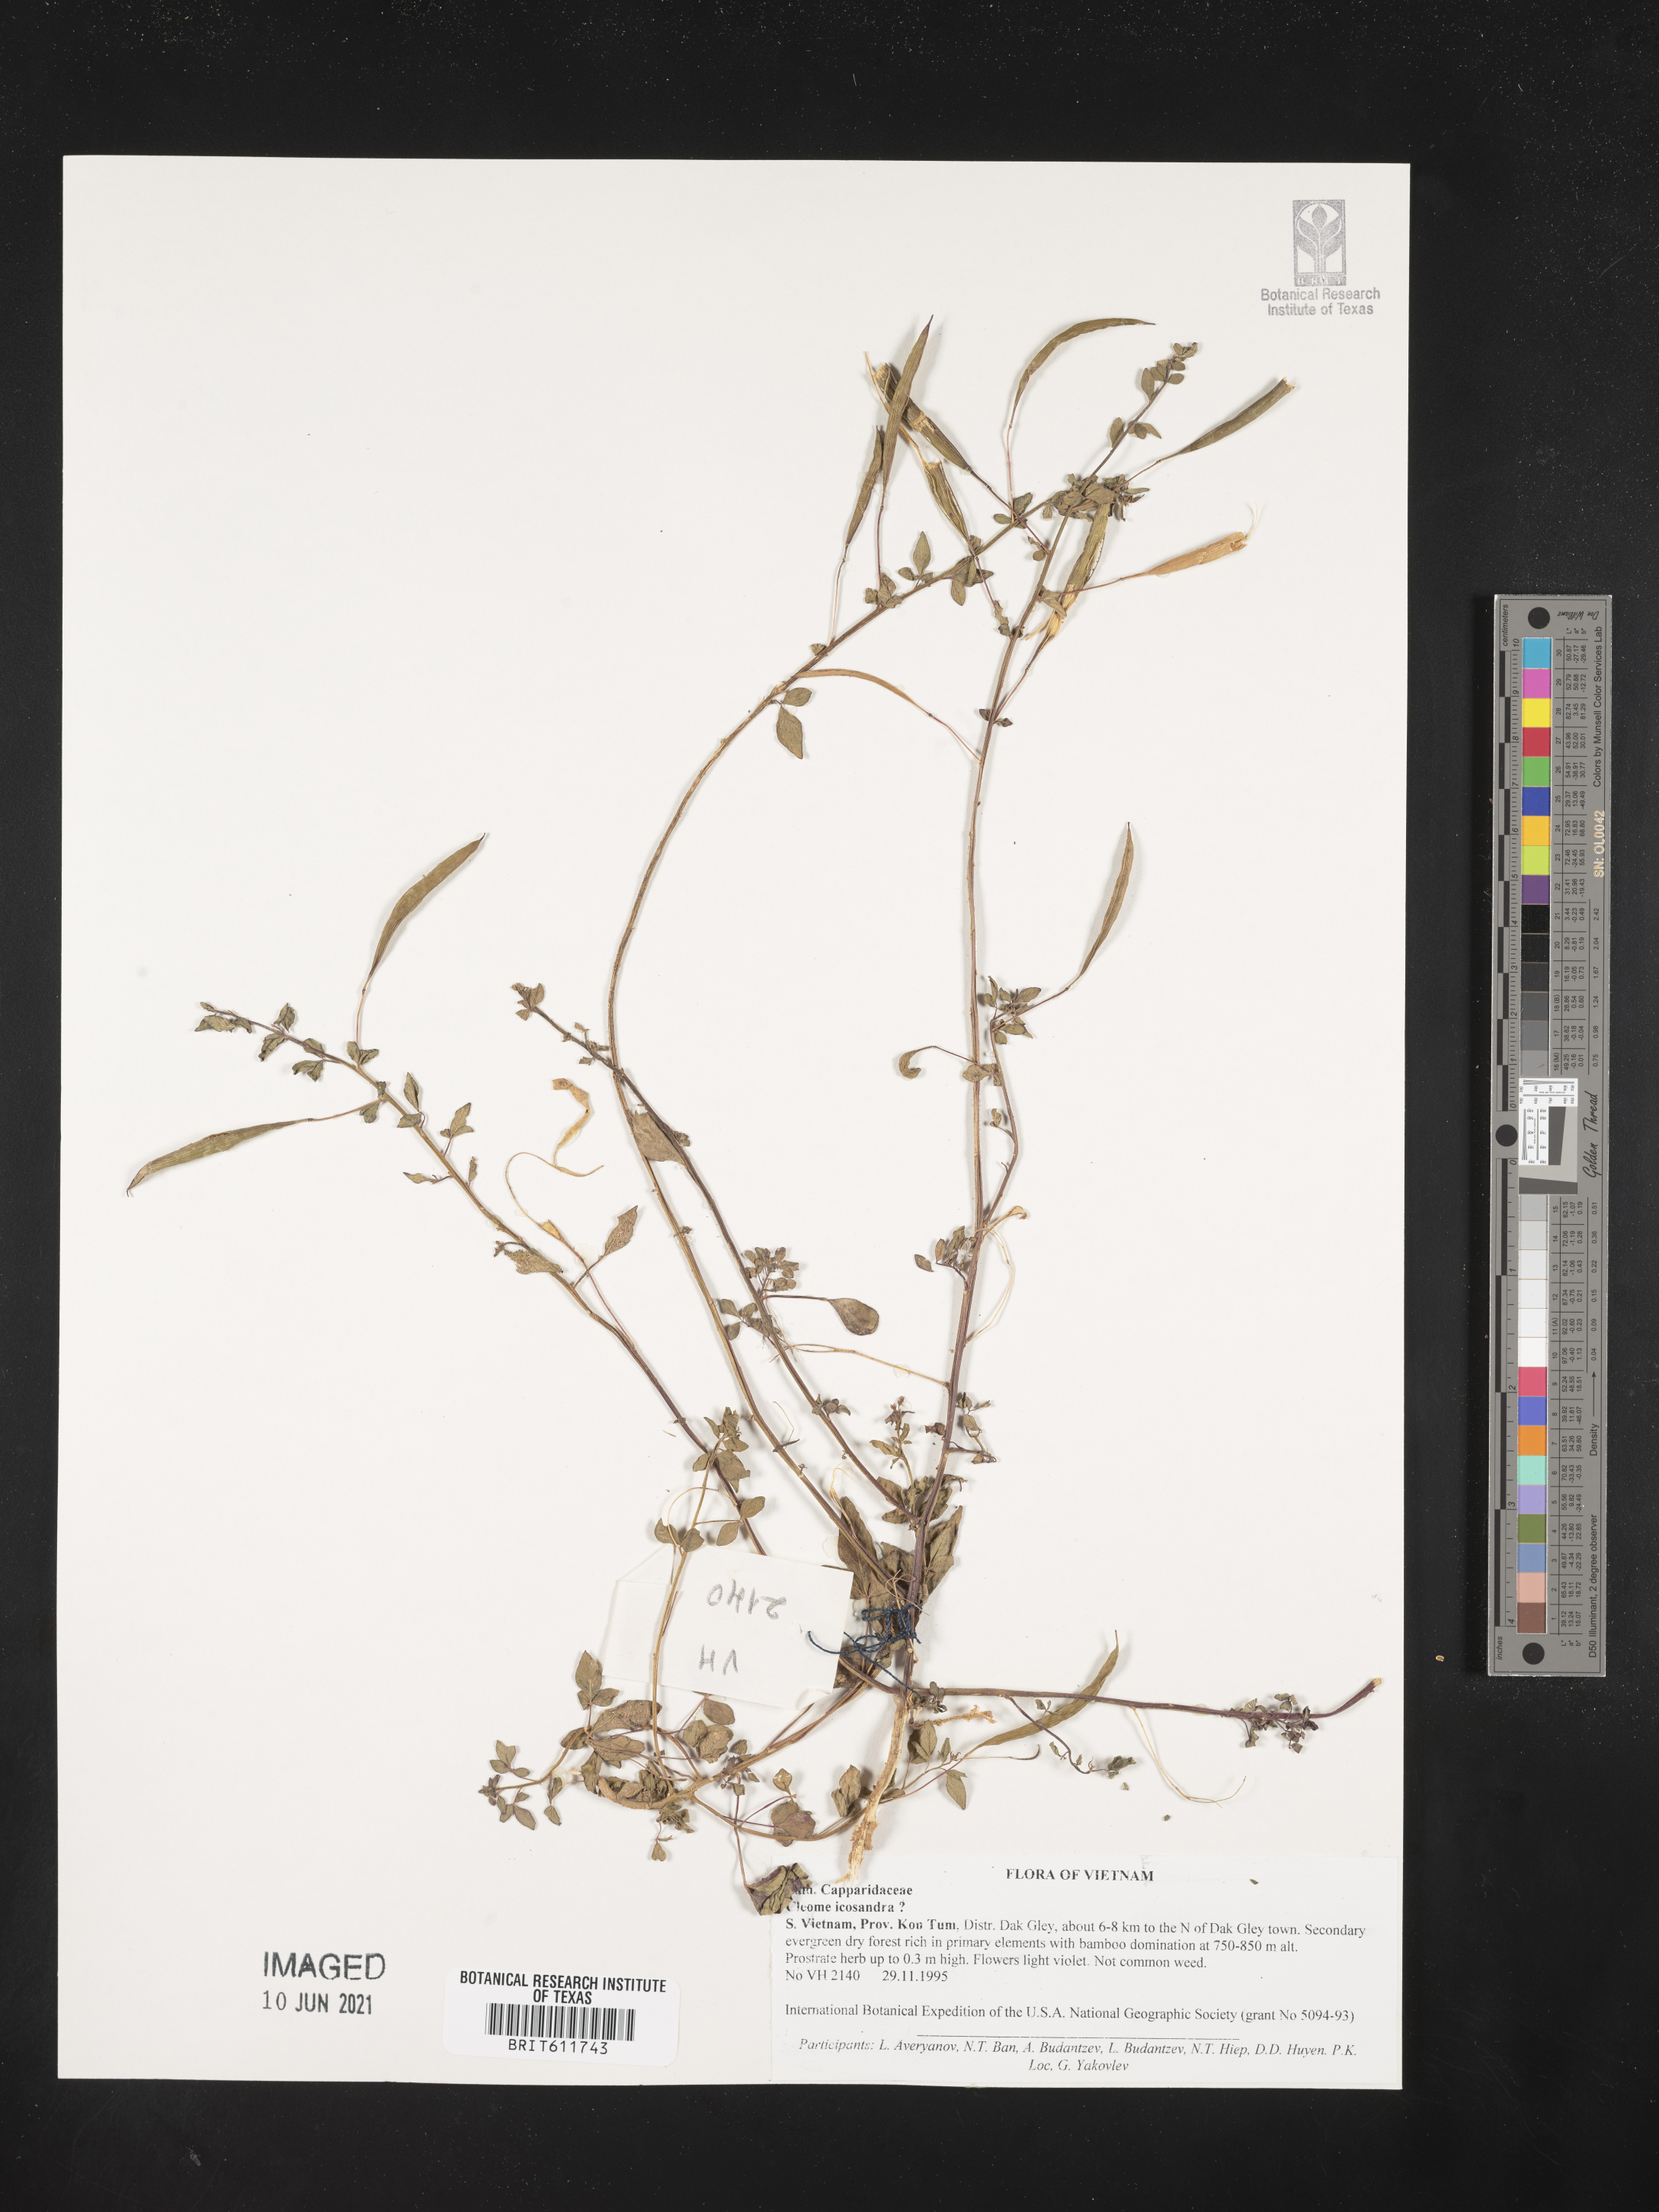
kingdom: Plantae
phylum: Tracheophyta
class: Magnoliopsida
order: Brassicales
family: Cleomaceae
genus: Arivela
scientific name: Arivela viscosa
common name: Asian spiderflower
